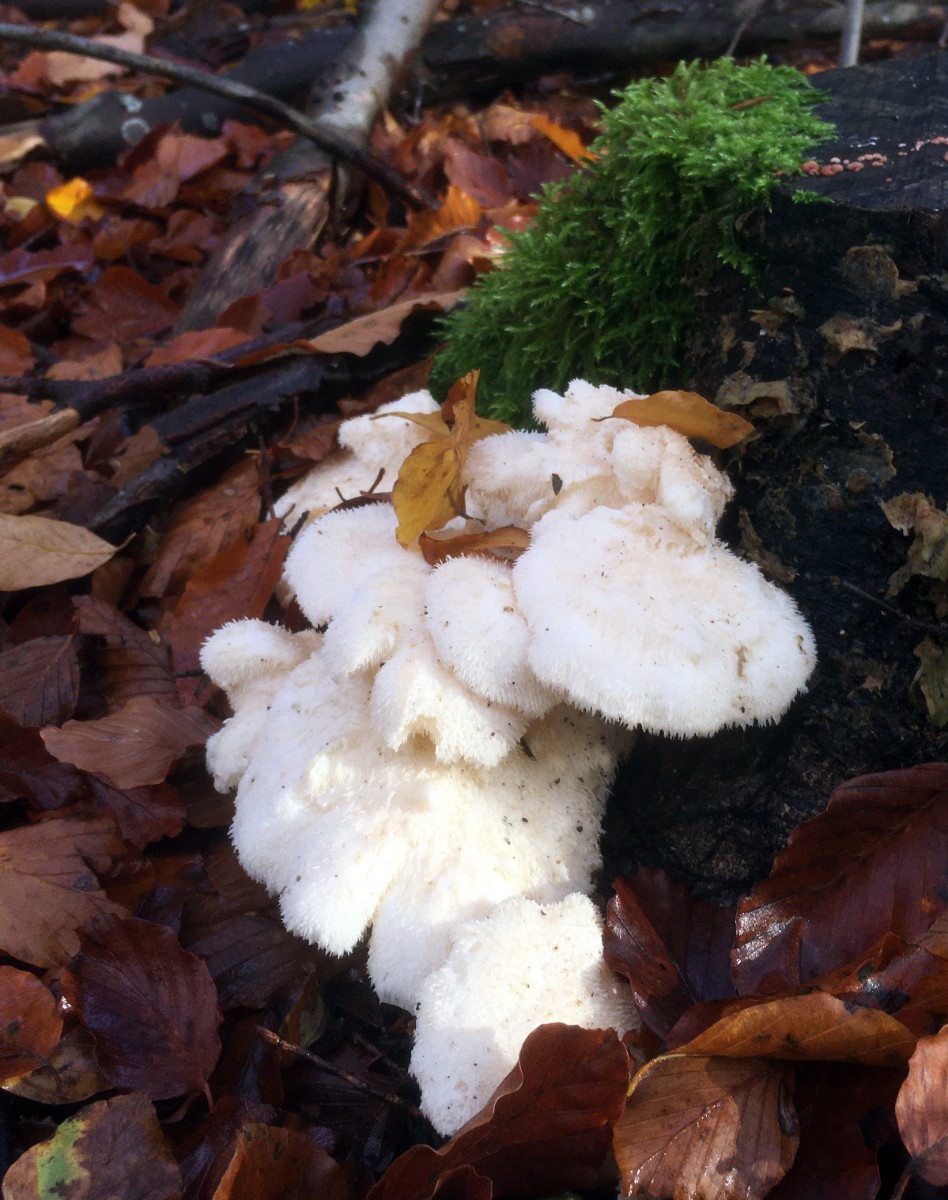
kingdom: Fungi
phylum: Basidiomycota
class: Agaricomycetes
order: Russulales
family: Hericiaceae
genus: Hericium
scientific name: Hericium cirrhatum
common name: børstepigsvamp
